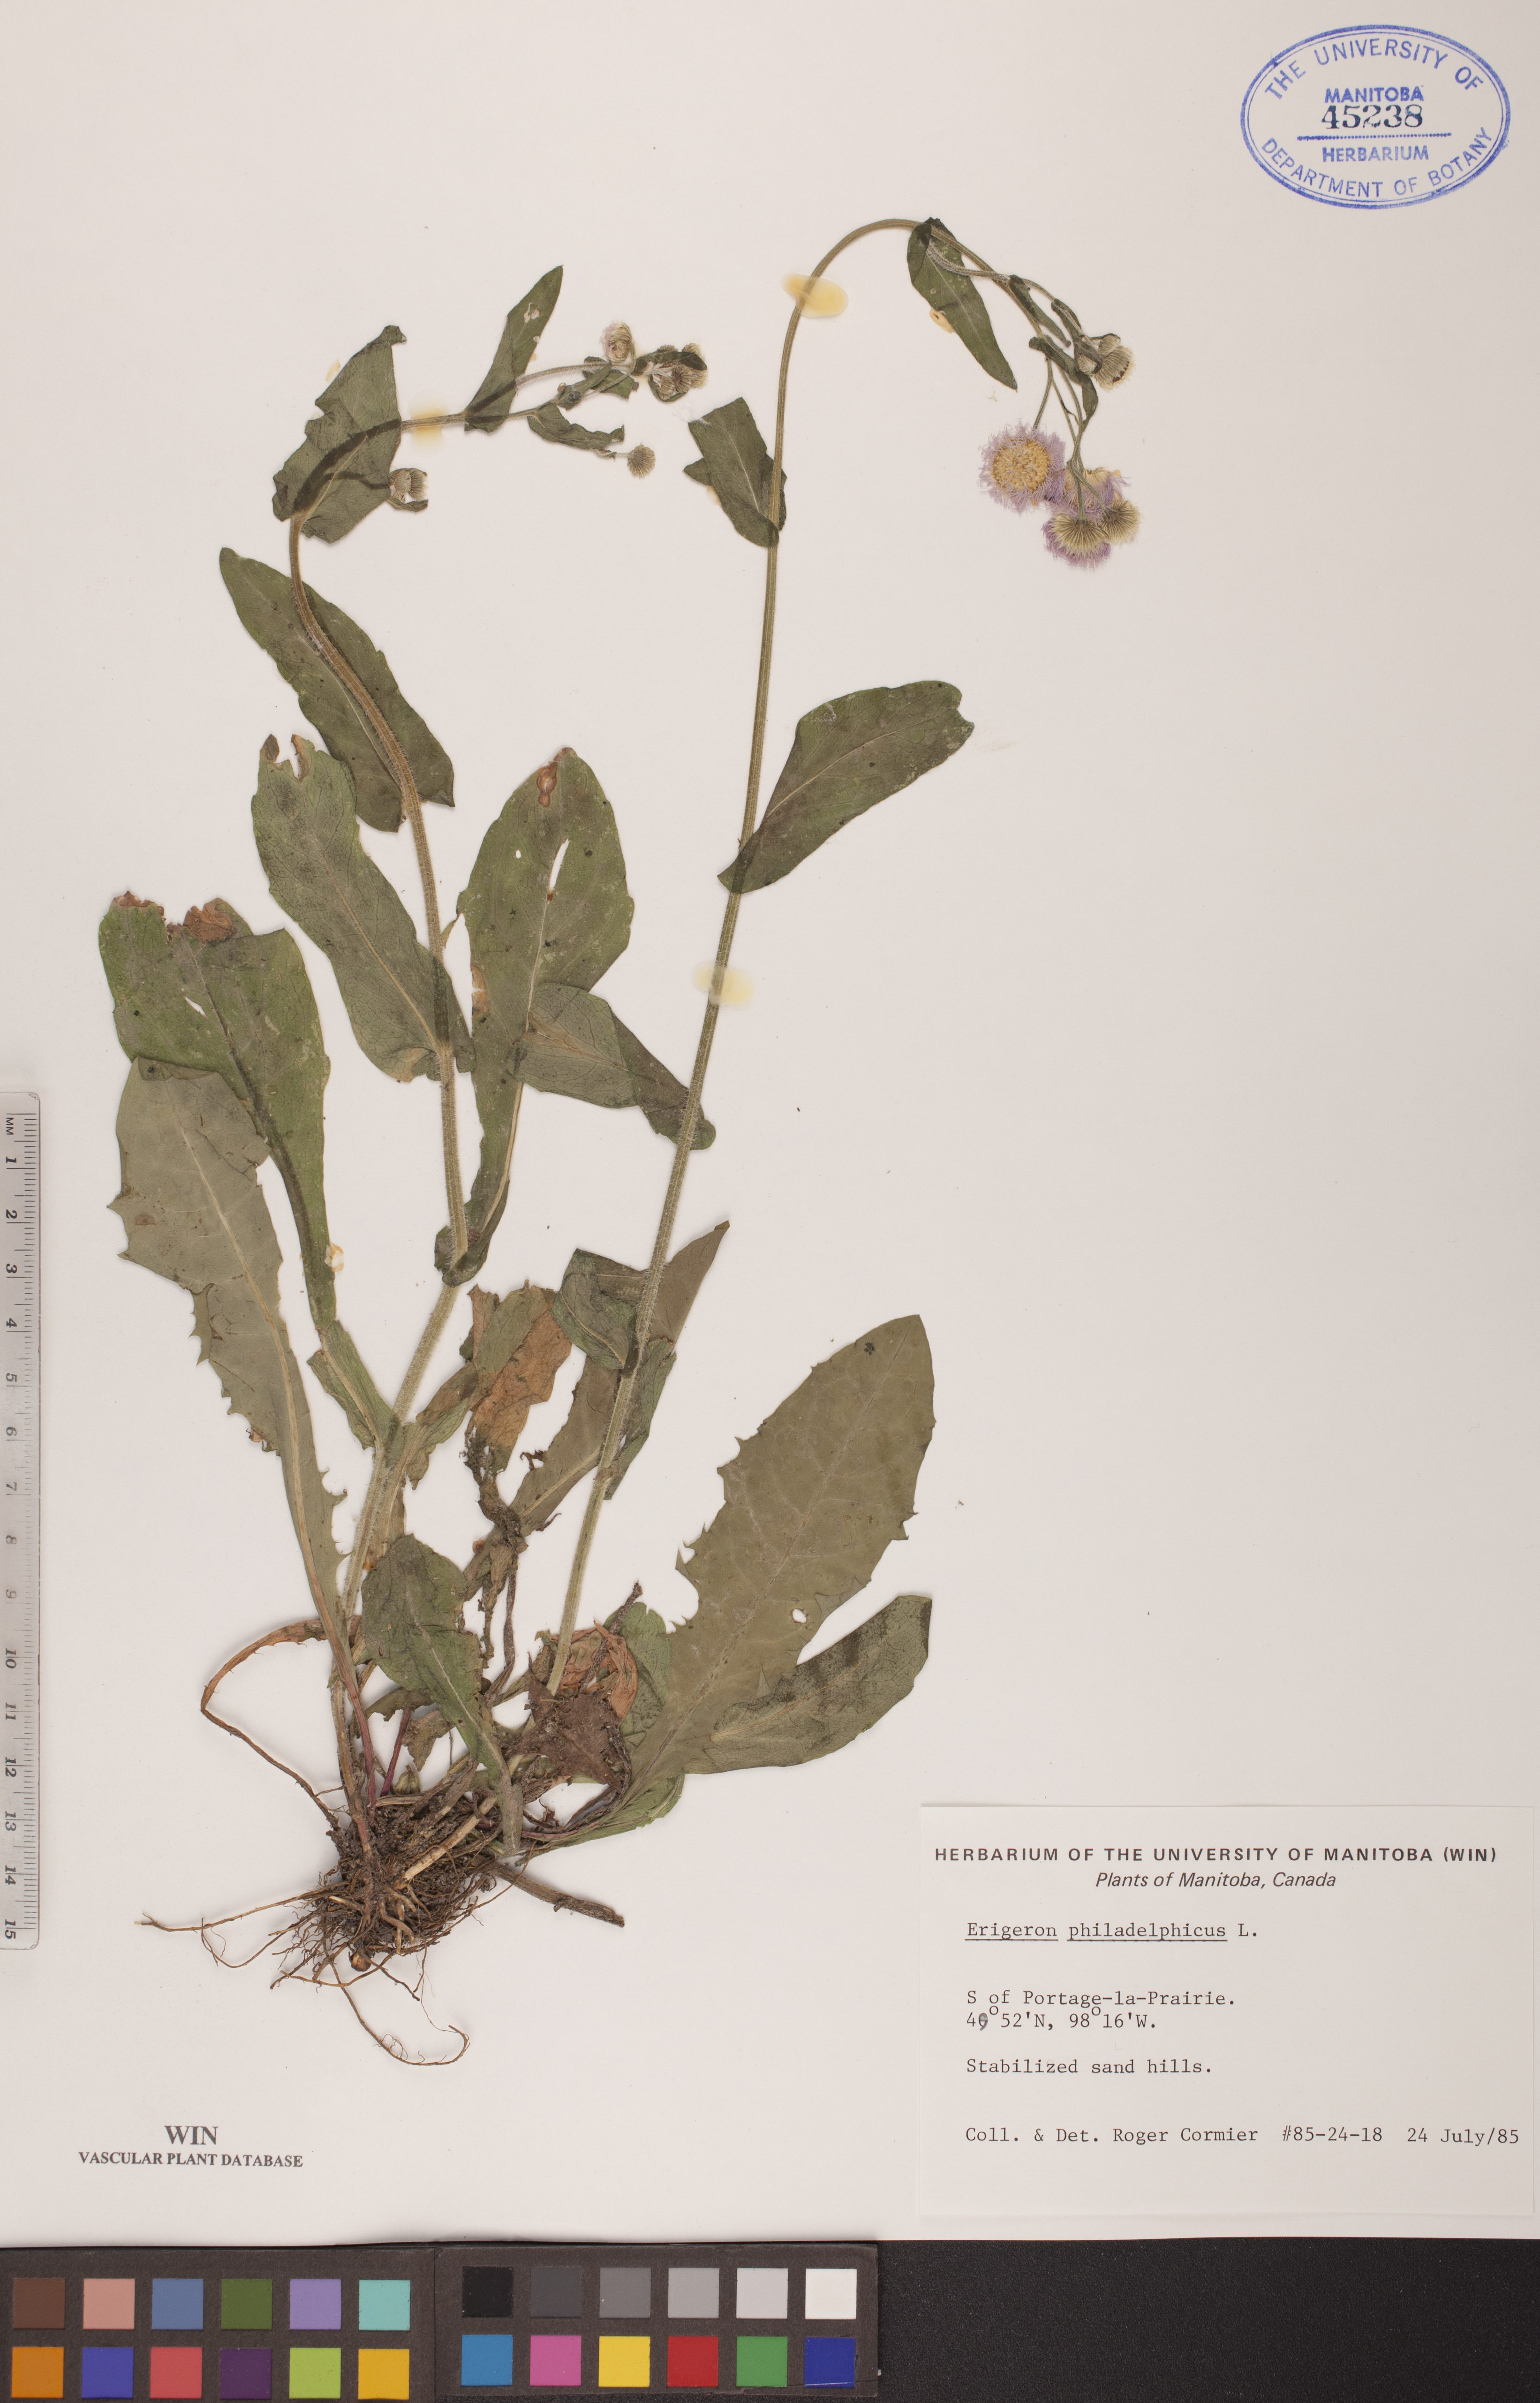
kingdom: Plantae
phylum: Tracheophyta
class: Magnoliopsida
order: Asterales
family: Asteraceae
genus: Erigeron
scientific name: Erigeron philadelphicus
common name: Robin's-plantain
